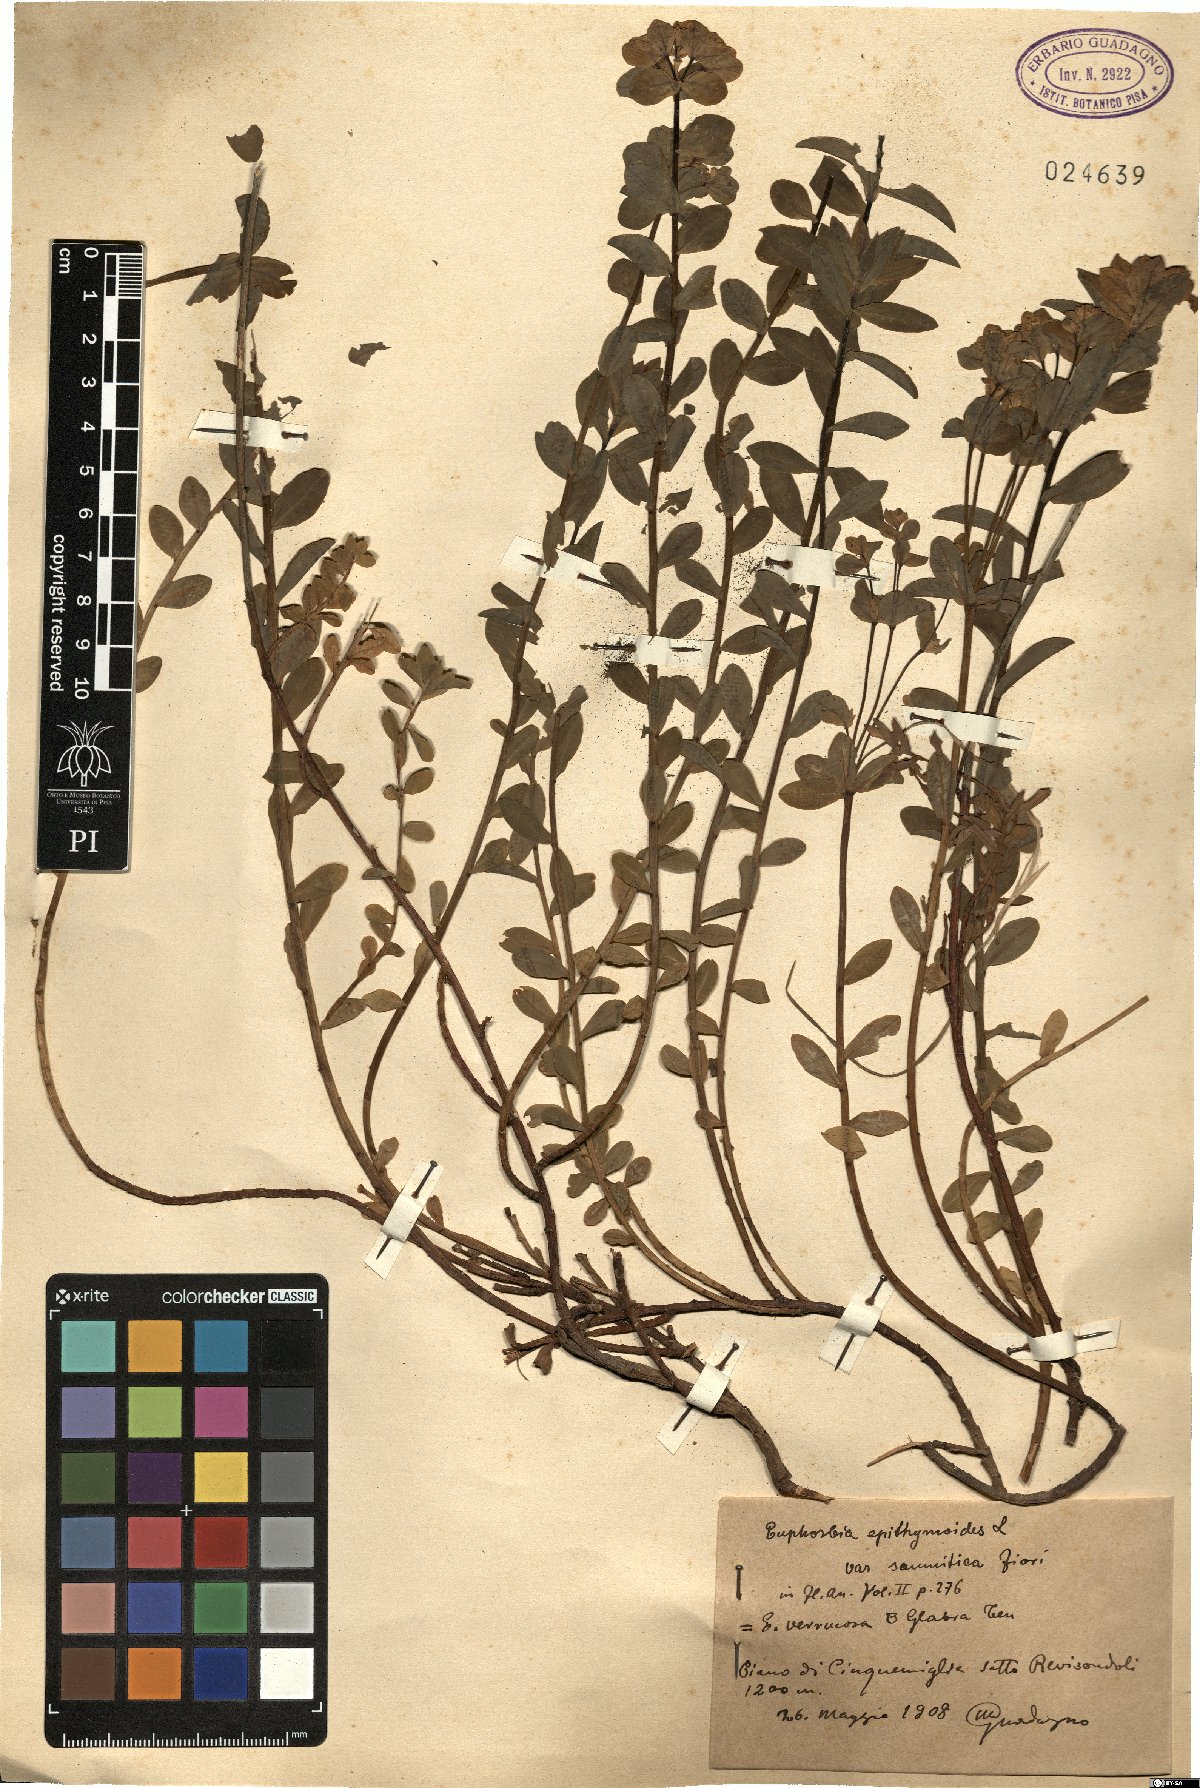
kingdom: Plantae
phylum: Tracheophyta
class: Magnoliopsida
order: Malpighiales
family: Euphorbiaceae
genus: Euphorbia
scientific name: Euphorbia gasparrinii
